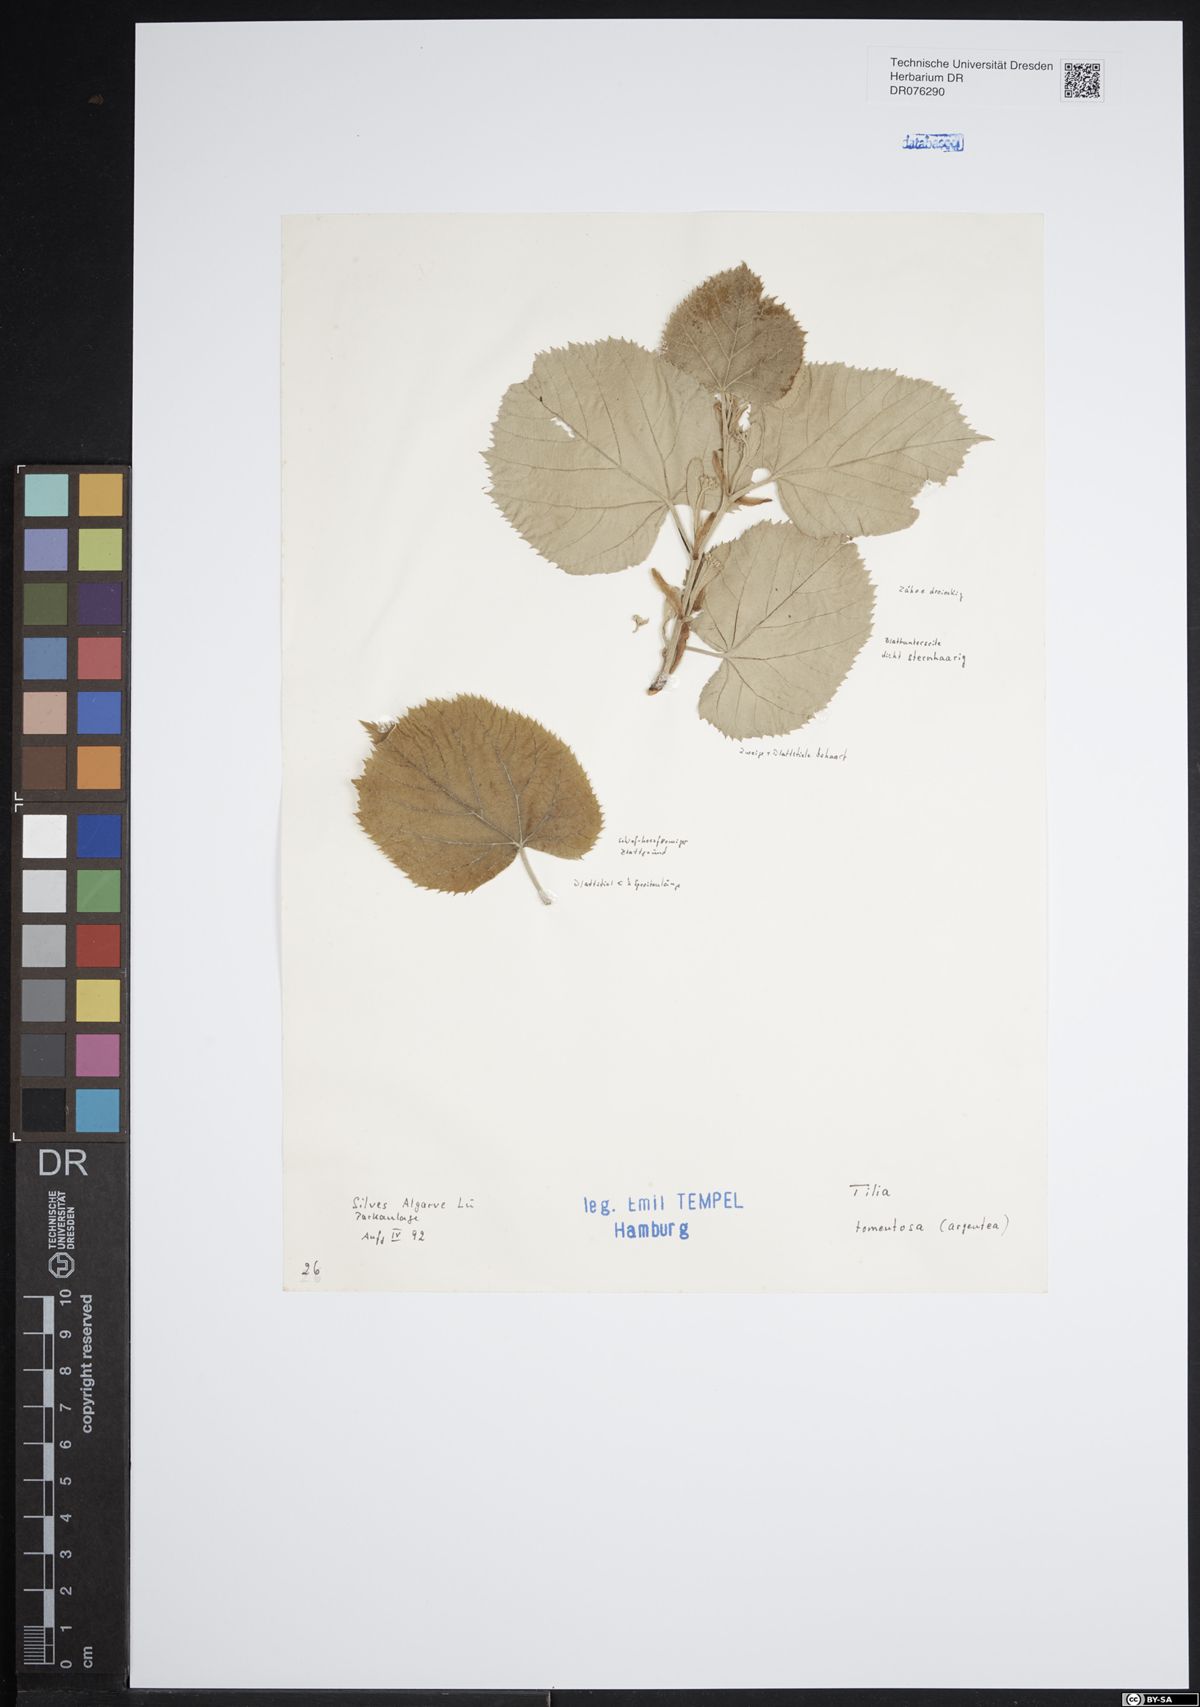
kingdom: Plantae
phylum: Tracheophyta
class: Magnoliopsida
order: Malvales
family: Malvaceae
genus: Tilia
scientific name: Tilia tomentosa
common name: Silver lime
